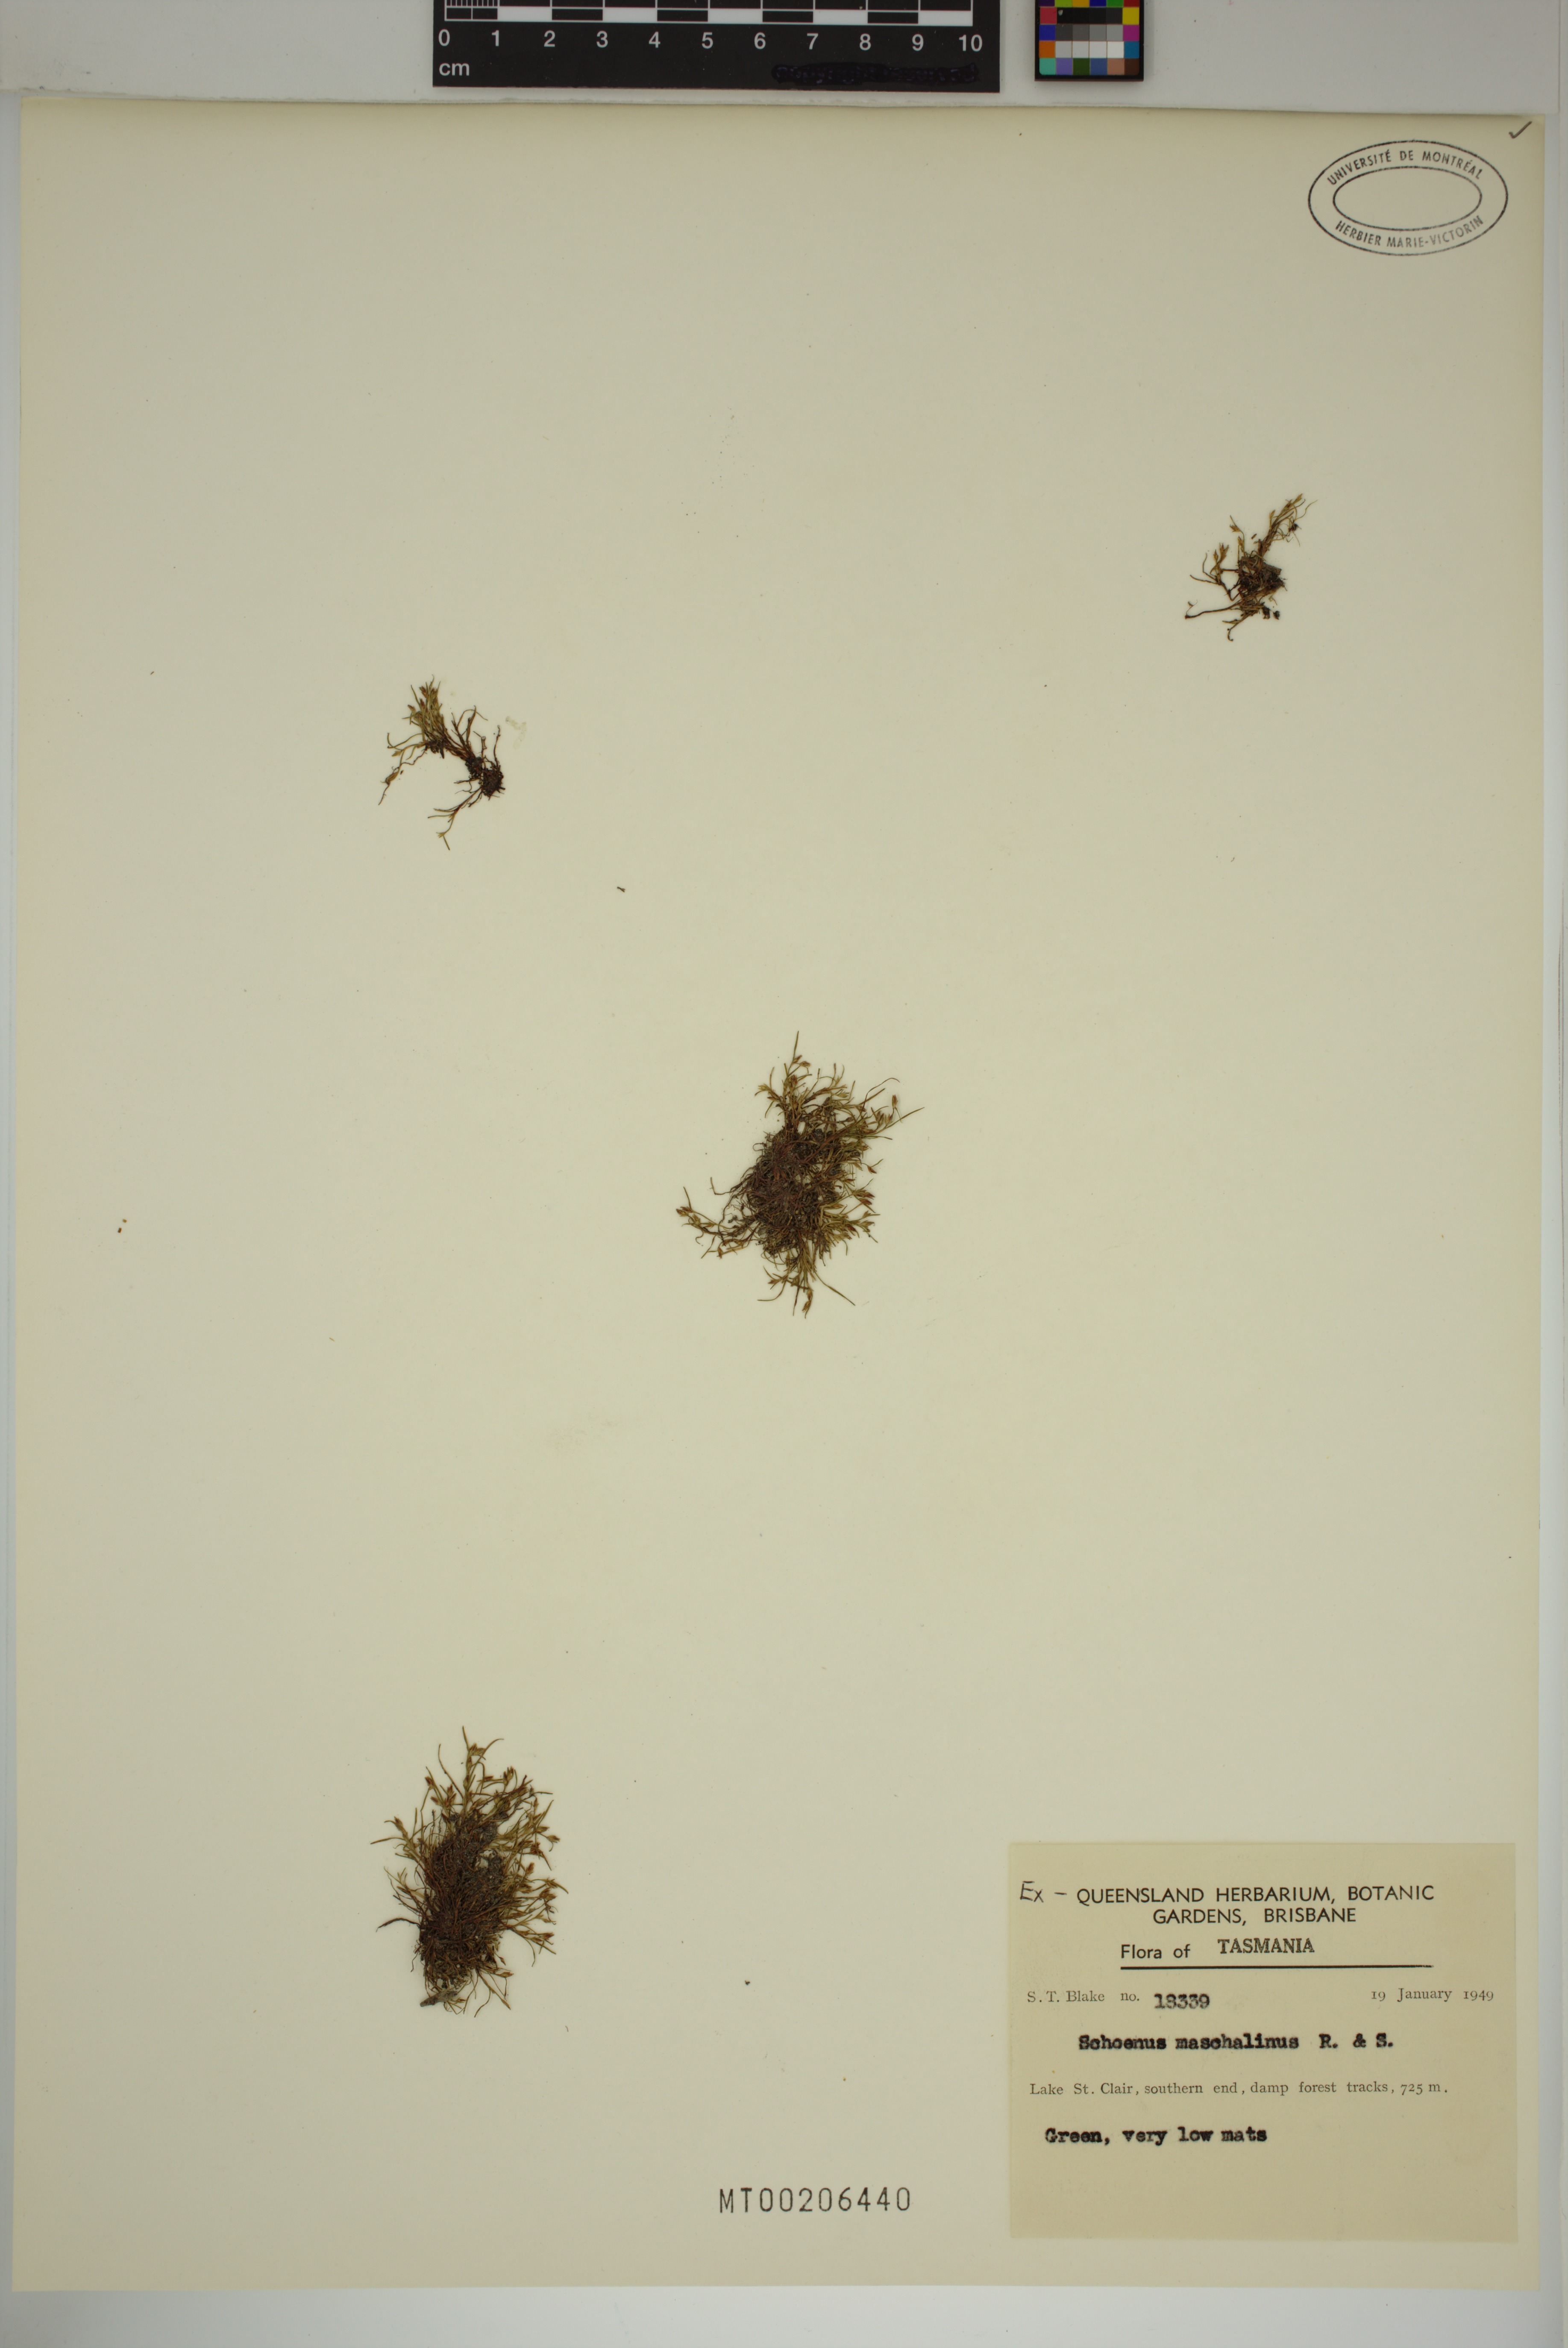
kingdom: Plantae
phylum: Tracheophyta
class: Liliopsida
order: Poales
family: Cyperaceae
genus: Schoenus
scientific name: Schoenus maschalinus
